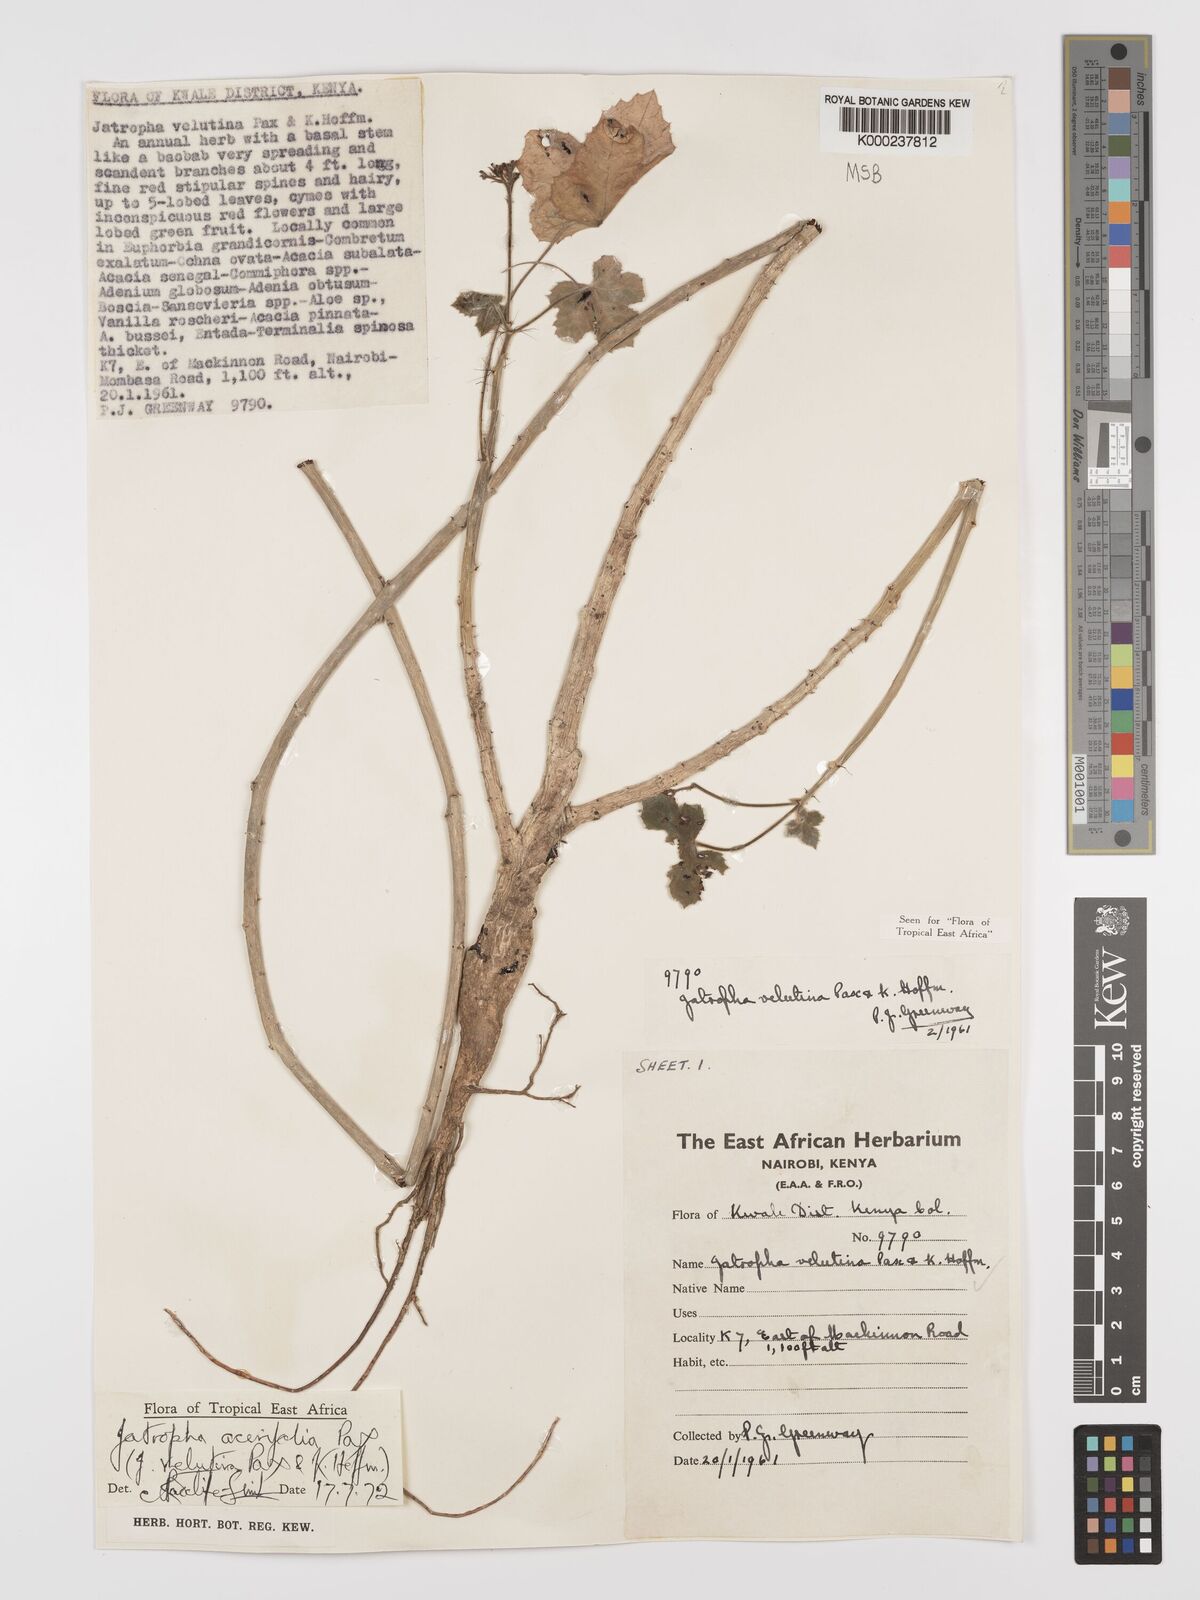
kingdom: Plantae
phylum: Tracheophyta
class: Magnoliopsida
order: Malpighiales
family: Euphorbiaceae
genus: Jatropha
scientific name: Jatropha velutina
